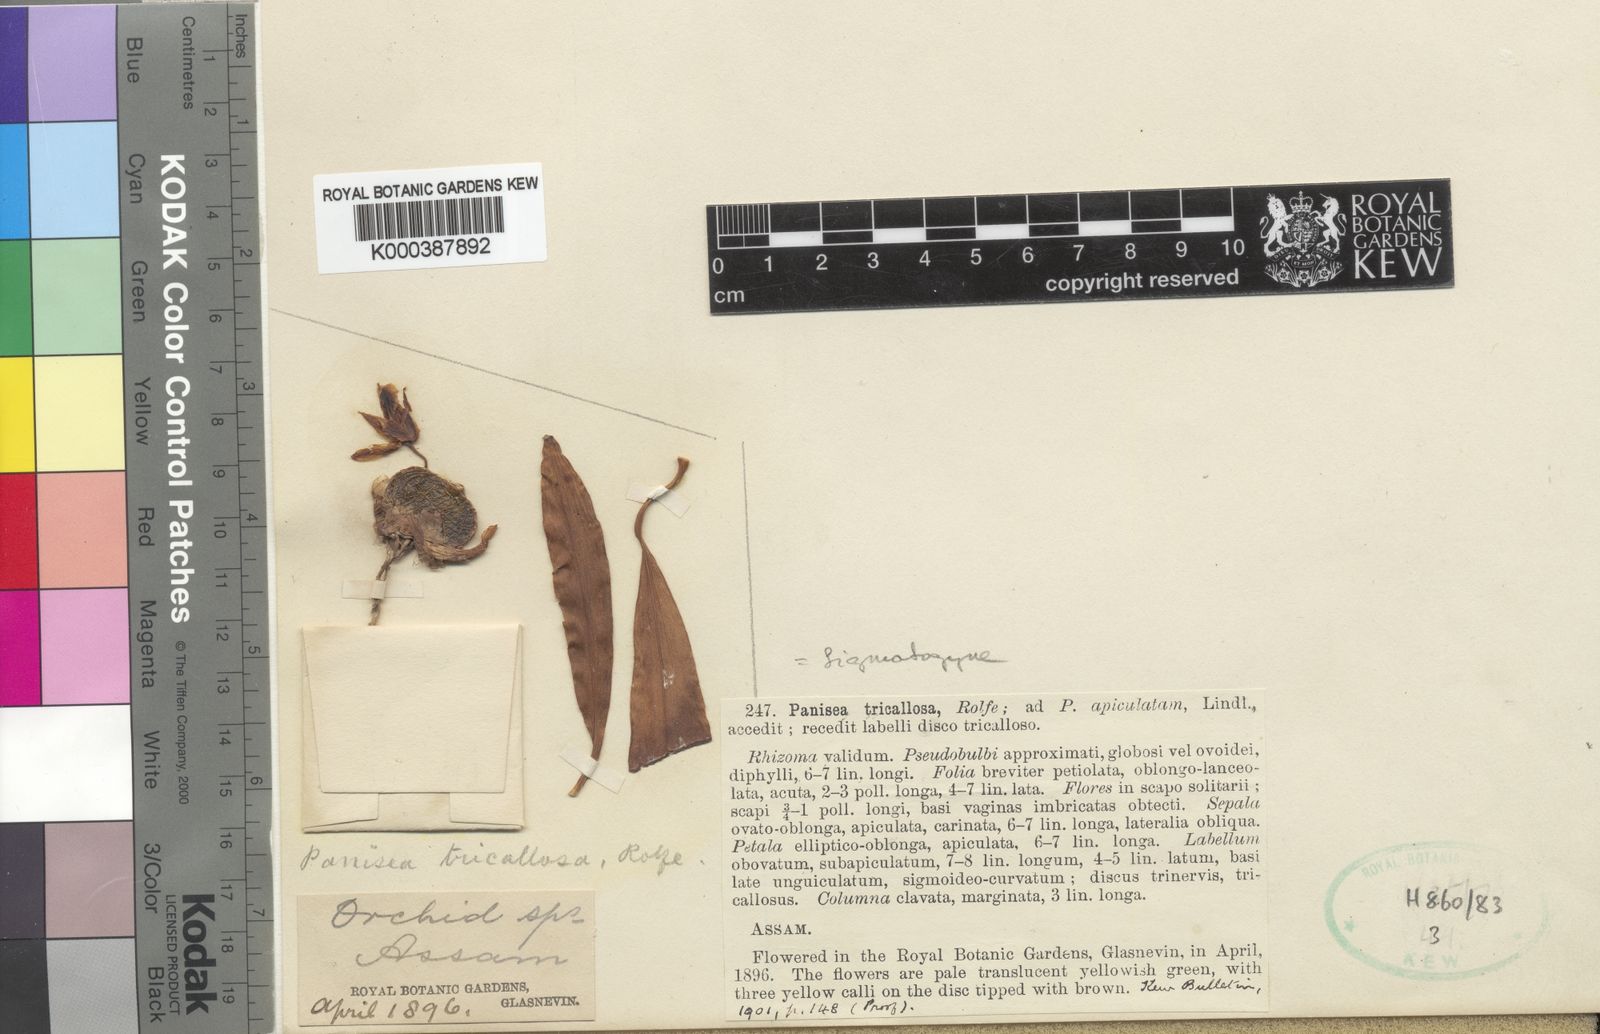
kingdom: Plantae
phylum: Tracheophyta
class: Liliopsida
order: Asparagales
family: Orchidaceae
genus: Coelogyne
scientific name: Coelogyne tricallosa
